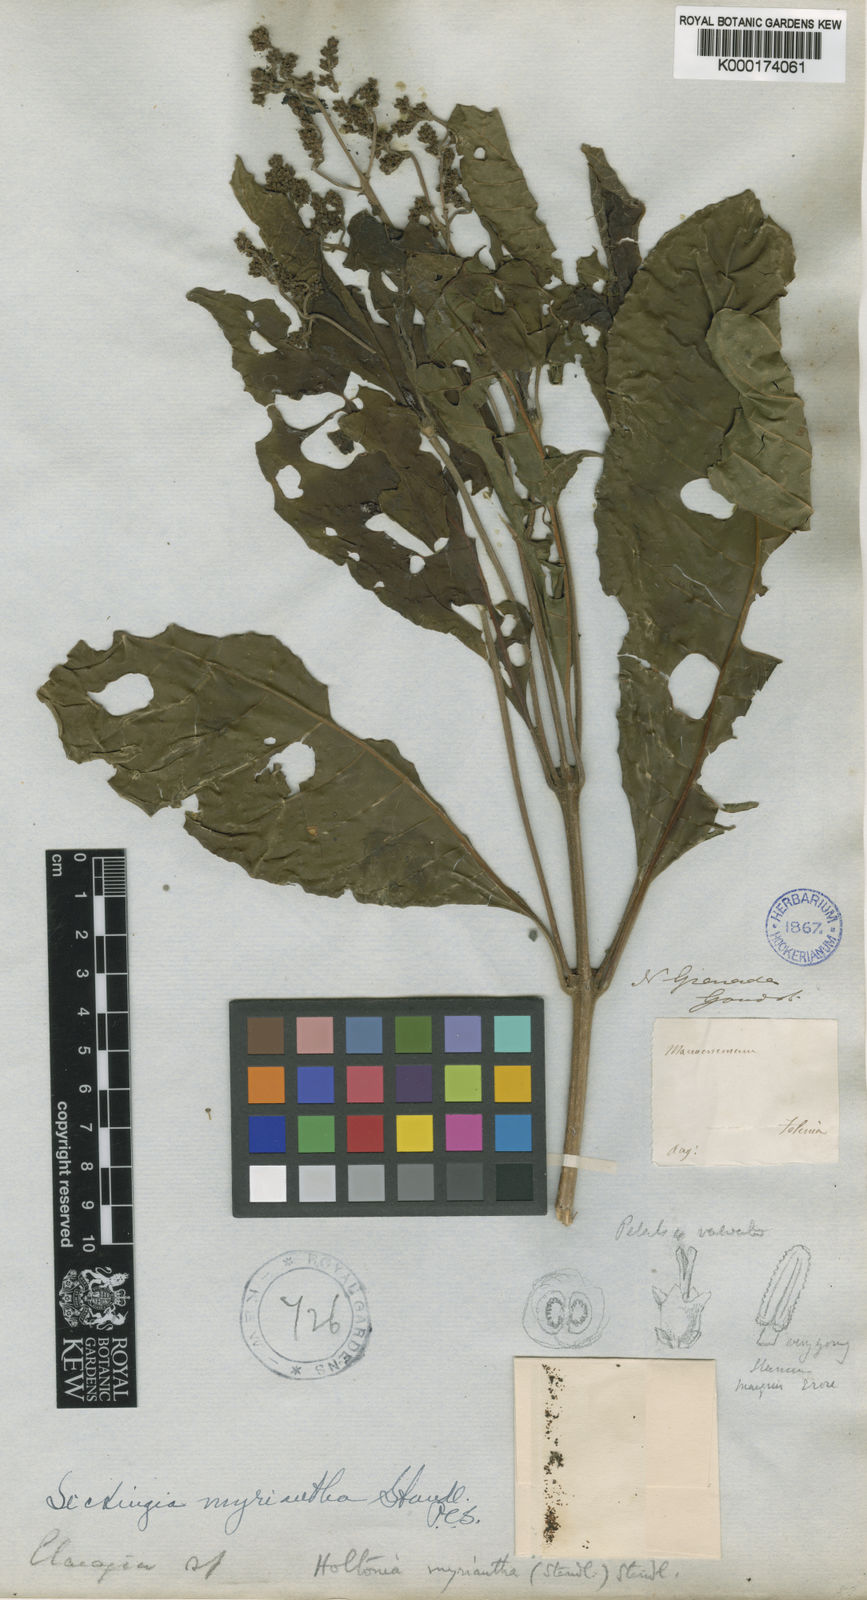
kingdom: Plantae
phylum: Tracheophyta
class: Magnoliopsida
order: Gentianales
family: Rubiaceae
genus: Elaeagia
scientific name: Elaeagia myriantha
